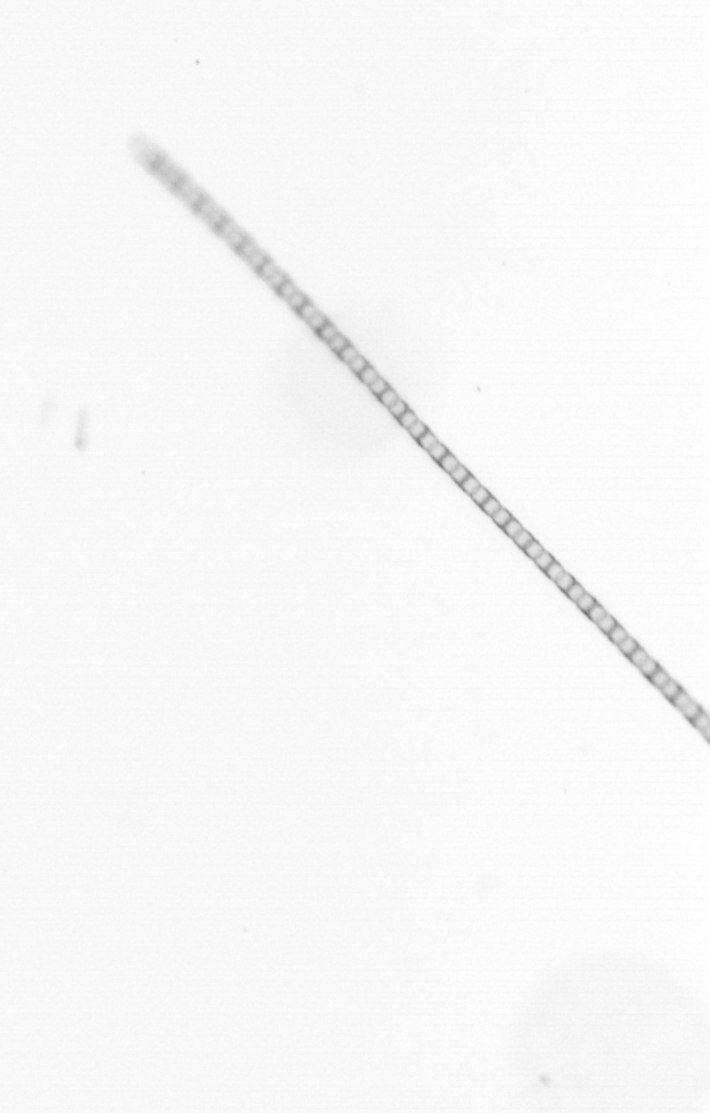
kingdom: Chromista
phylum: Ochrophyta
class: Bacillariophyceae
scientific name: Bacillariophyceae
